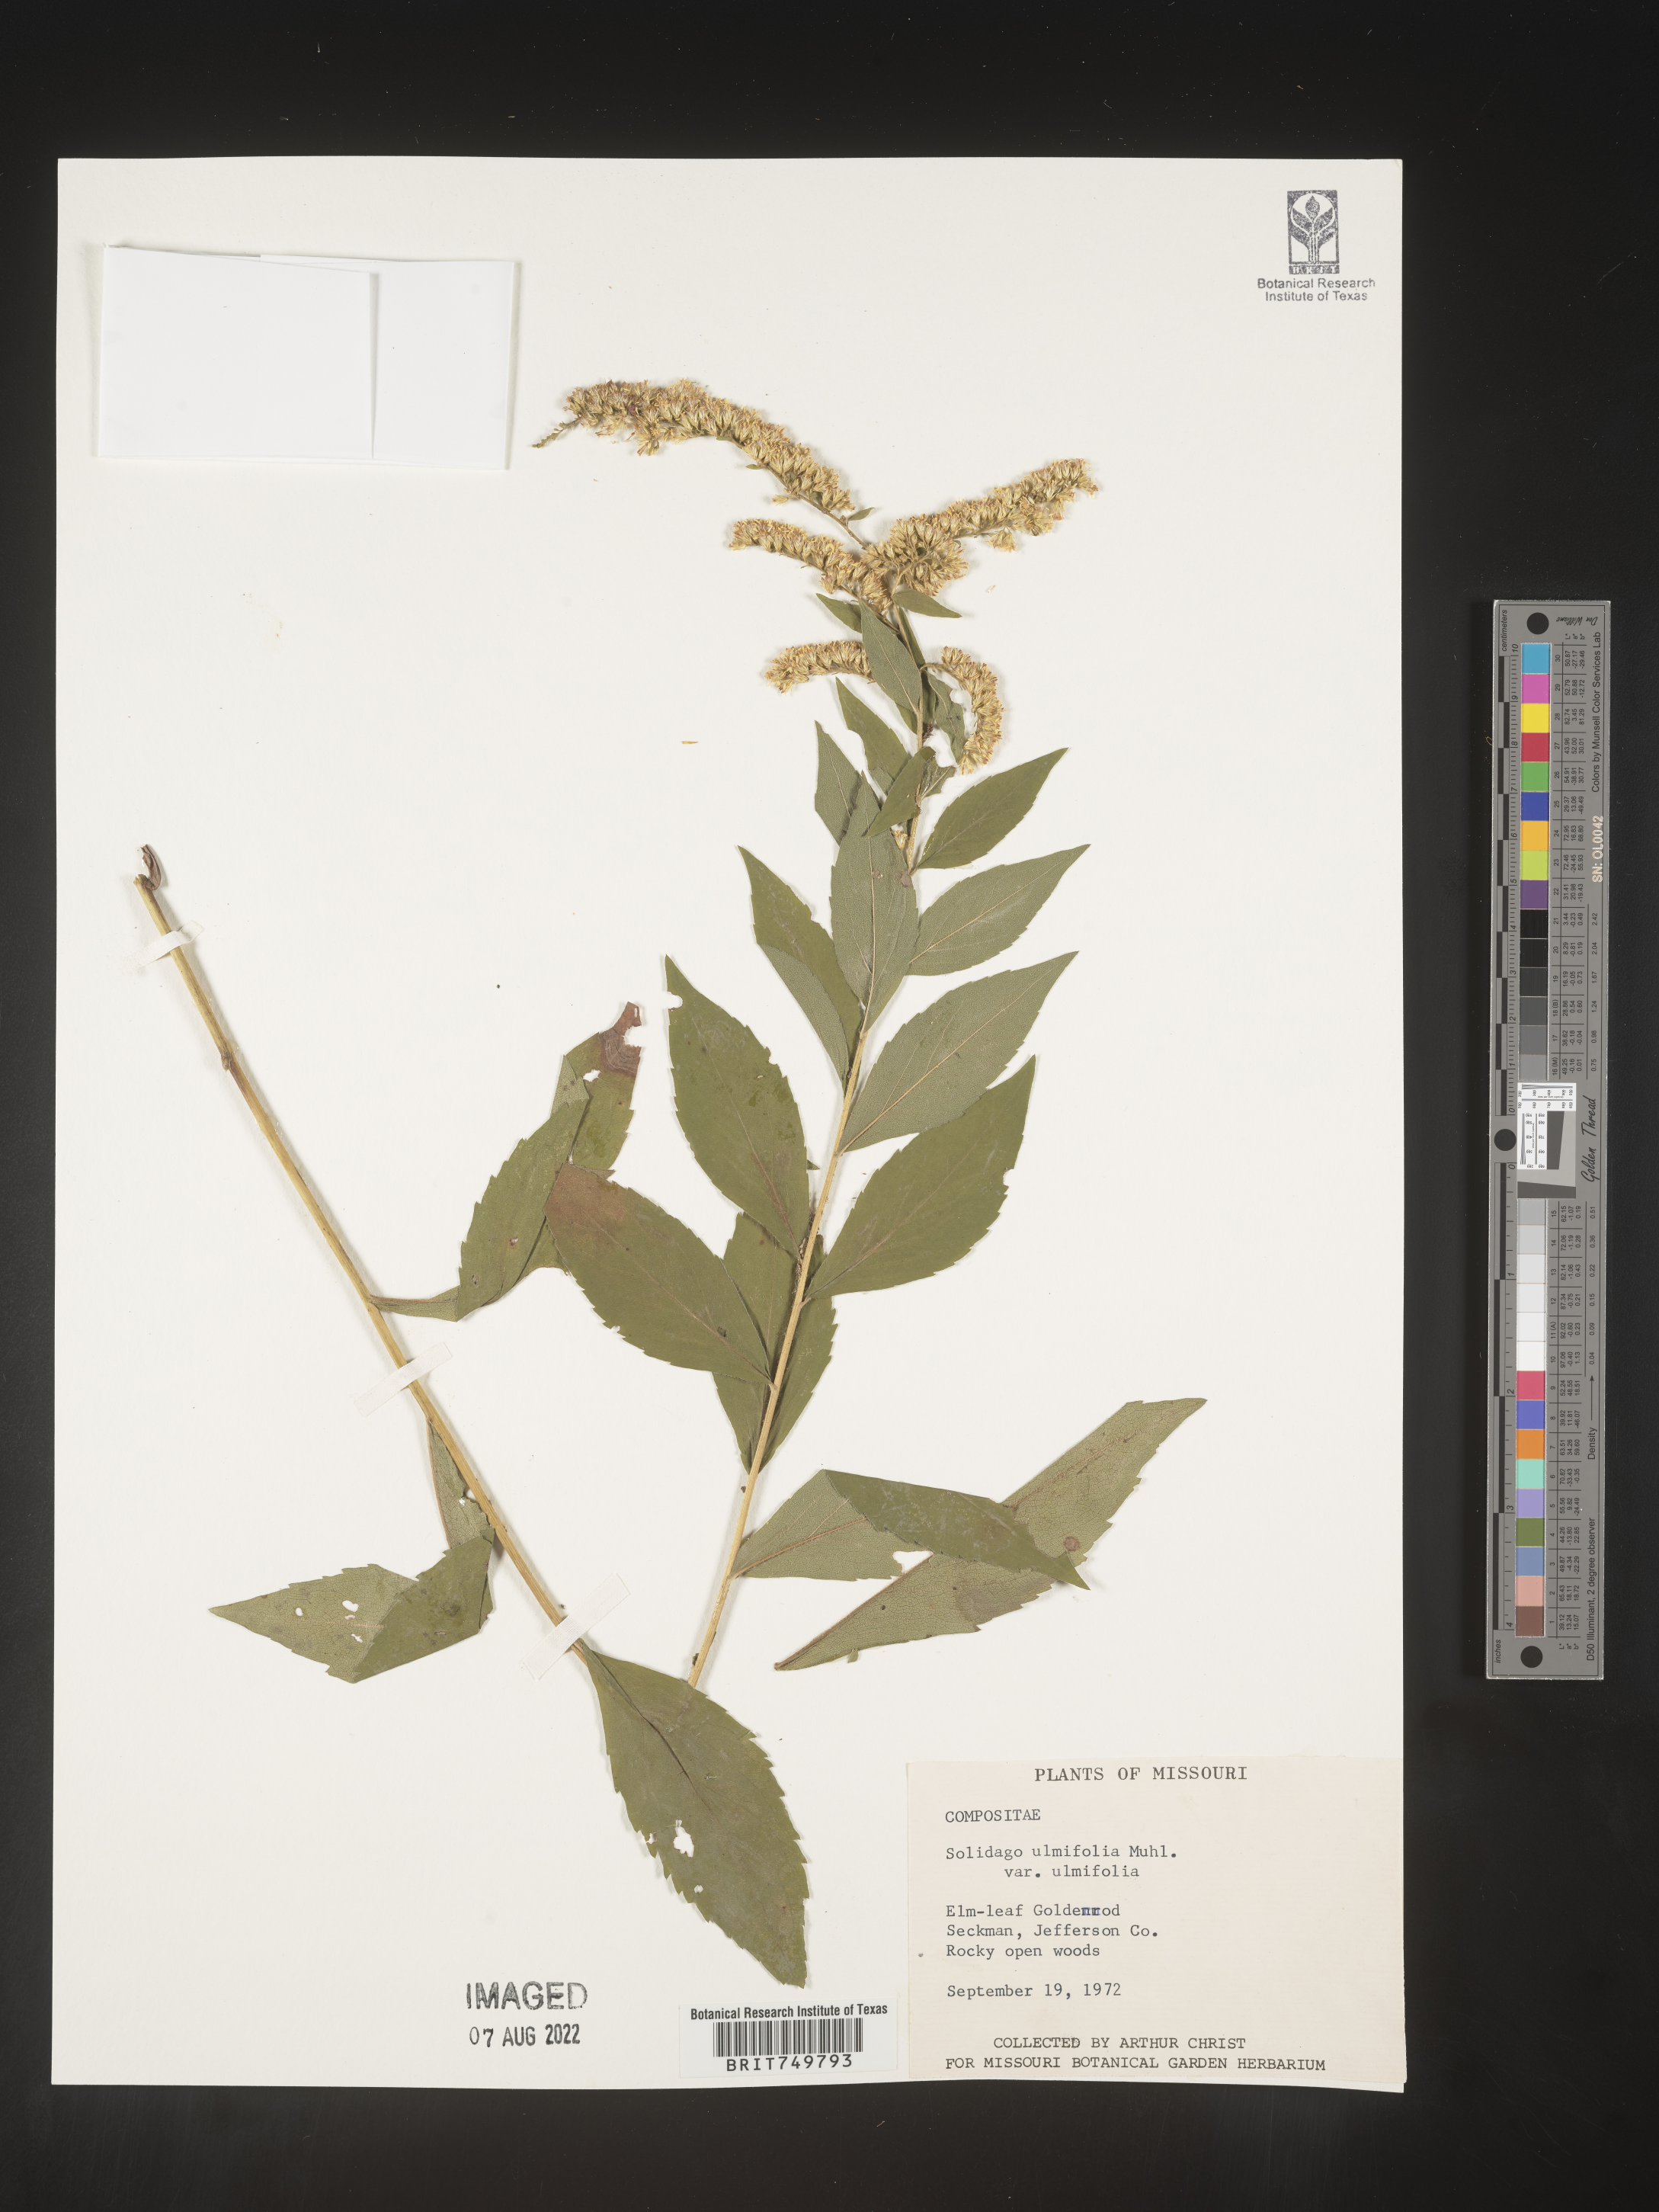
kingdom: Plantae
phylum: Tracheophyta
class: Magnoliopsida
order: Asterales
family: Asteraceae
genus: Solidago
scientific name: Solidago ulmifolia
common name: Elm-leaf goldenrod
